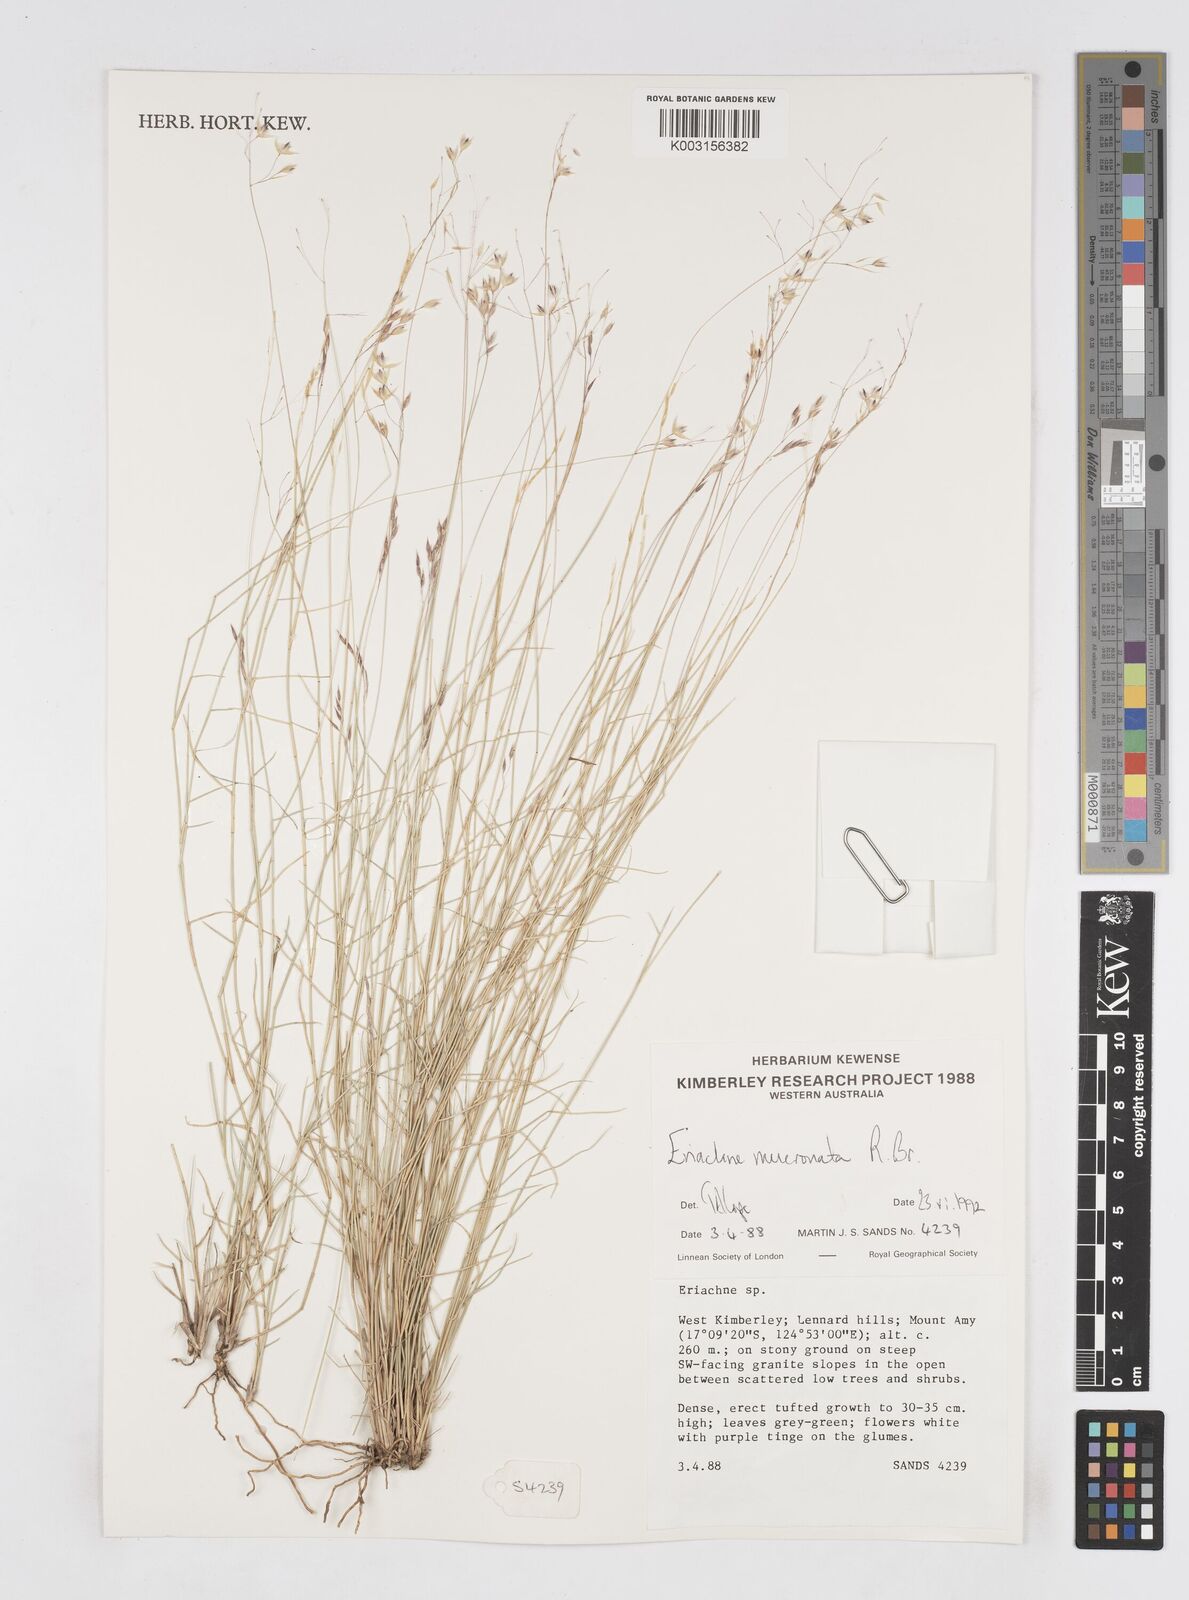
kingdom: Plantae
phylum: Tracheophyta
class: Liliopsida
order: Poales
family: Poaceae
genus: Eriachne
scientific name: Eriachne mucronata
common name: Mountain wanderrie grass
